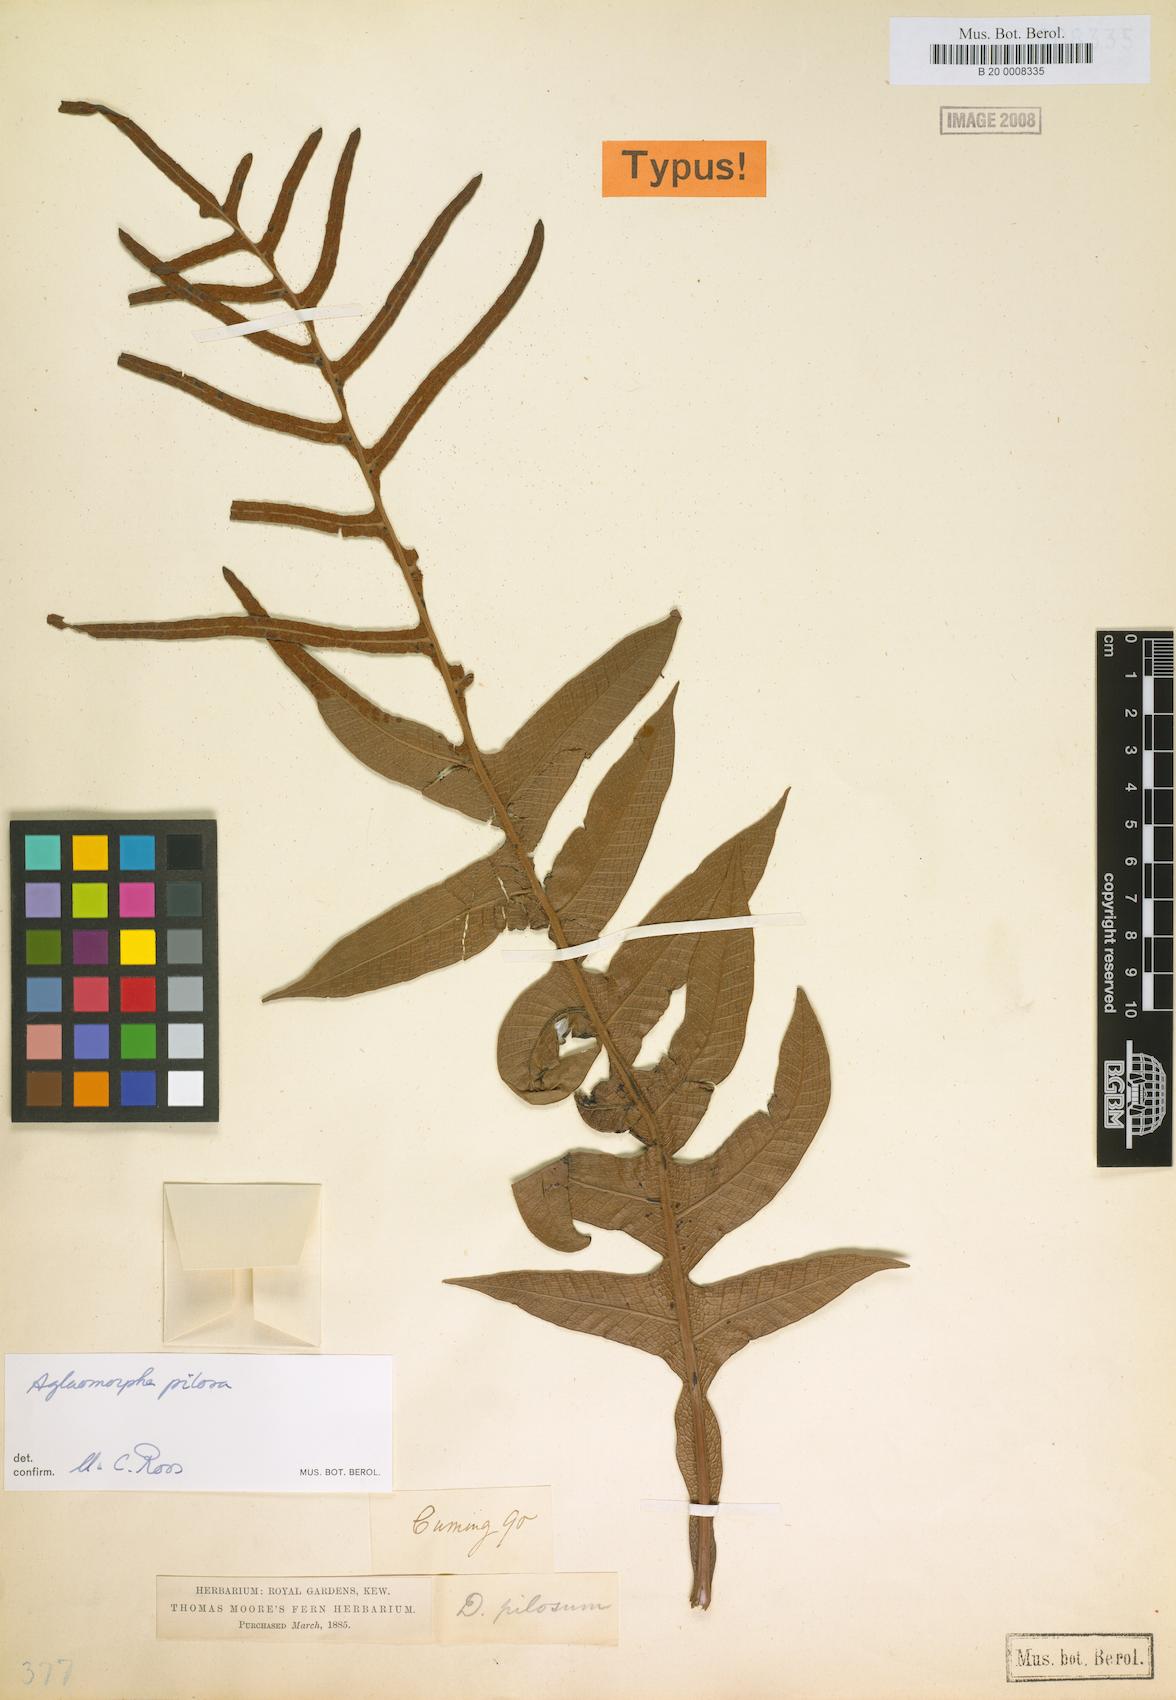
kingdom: Plantae
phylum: Tracheophyta
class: Polypodiopsida
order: Polypodiales
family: Polypodiaceae
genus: Drynaria
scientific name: Drynaria pilosa
